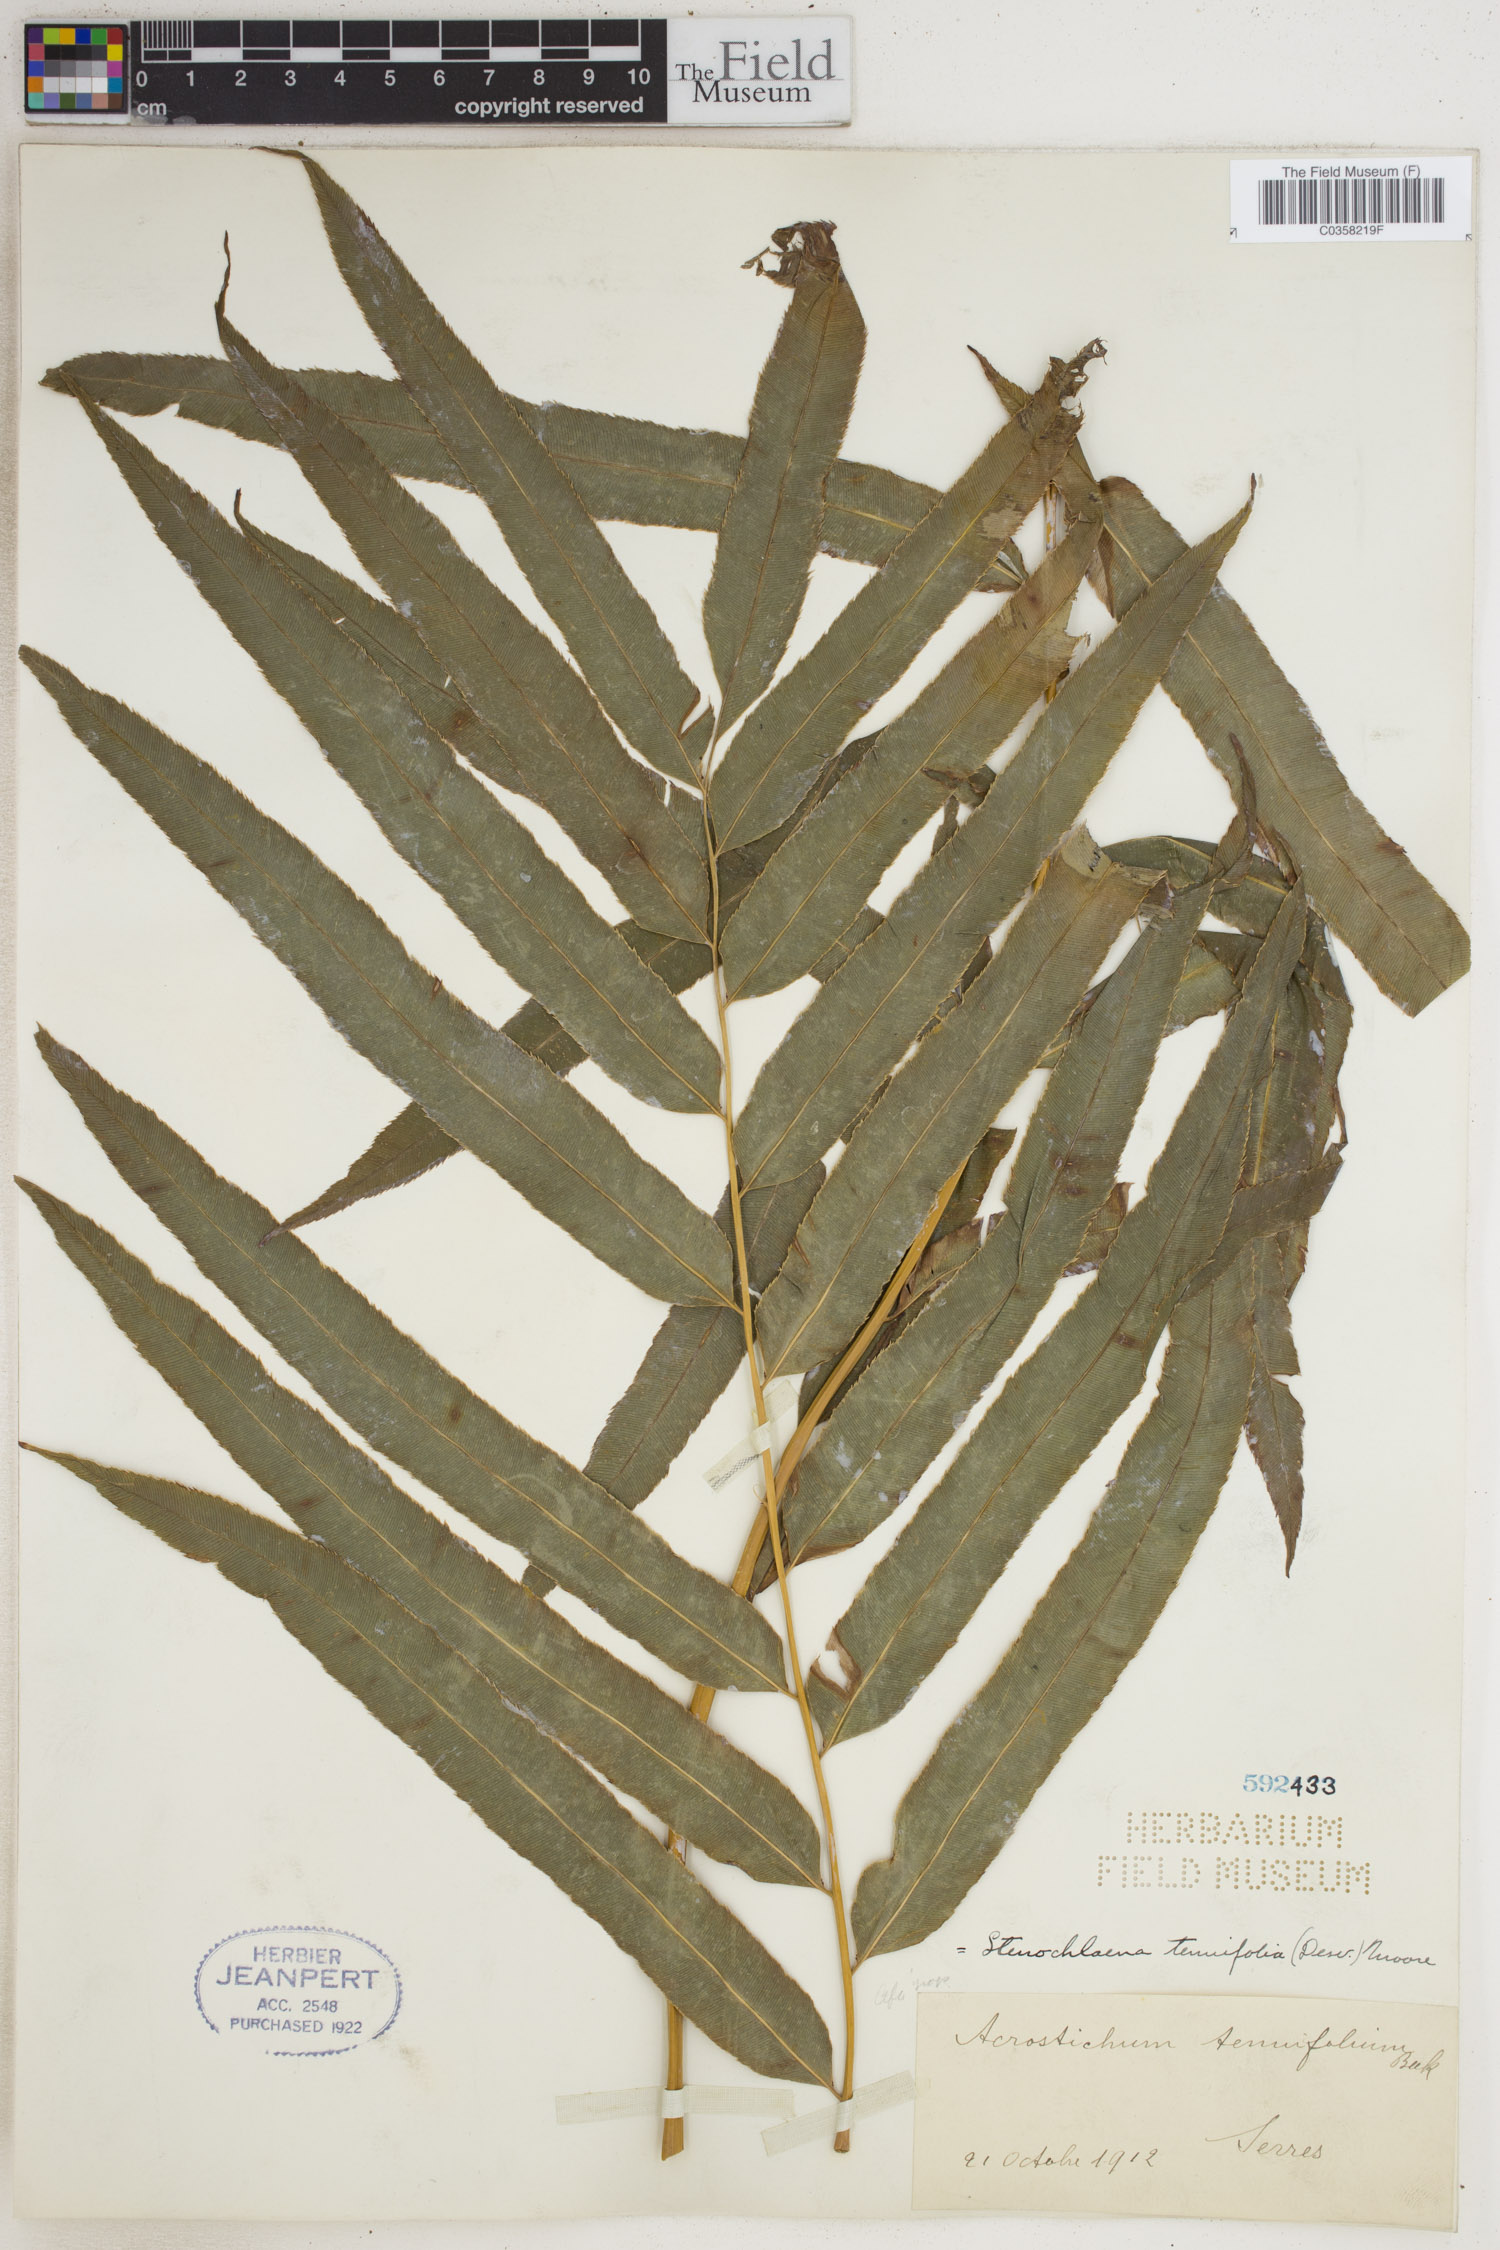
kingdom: Plantae
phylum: Tracheophyta
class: Polypodiopsida
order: Polypodiales
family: Blechnaceae
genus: Stenochlaena
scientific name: Stenochlaena tenuifolia
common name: Giant vine fern
